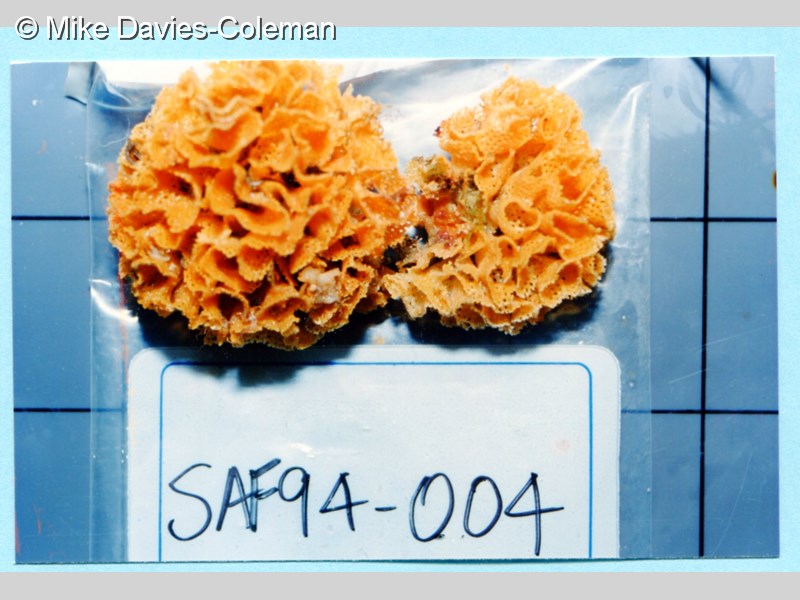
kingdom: Animalia
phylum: Bryozoa
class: Gymnolaemata
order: Cheilostomatida
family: Phidoloporidae
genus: Schizoretepora
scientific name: Schizoretepora tessellata
